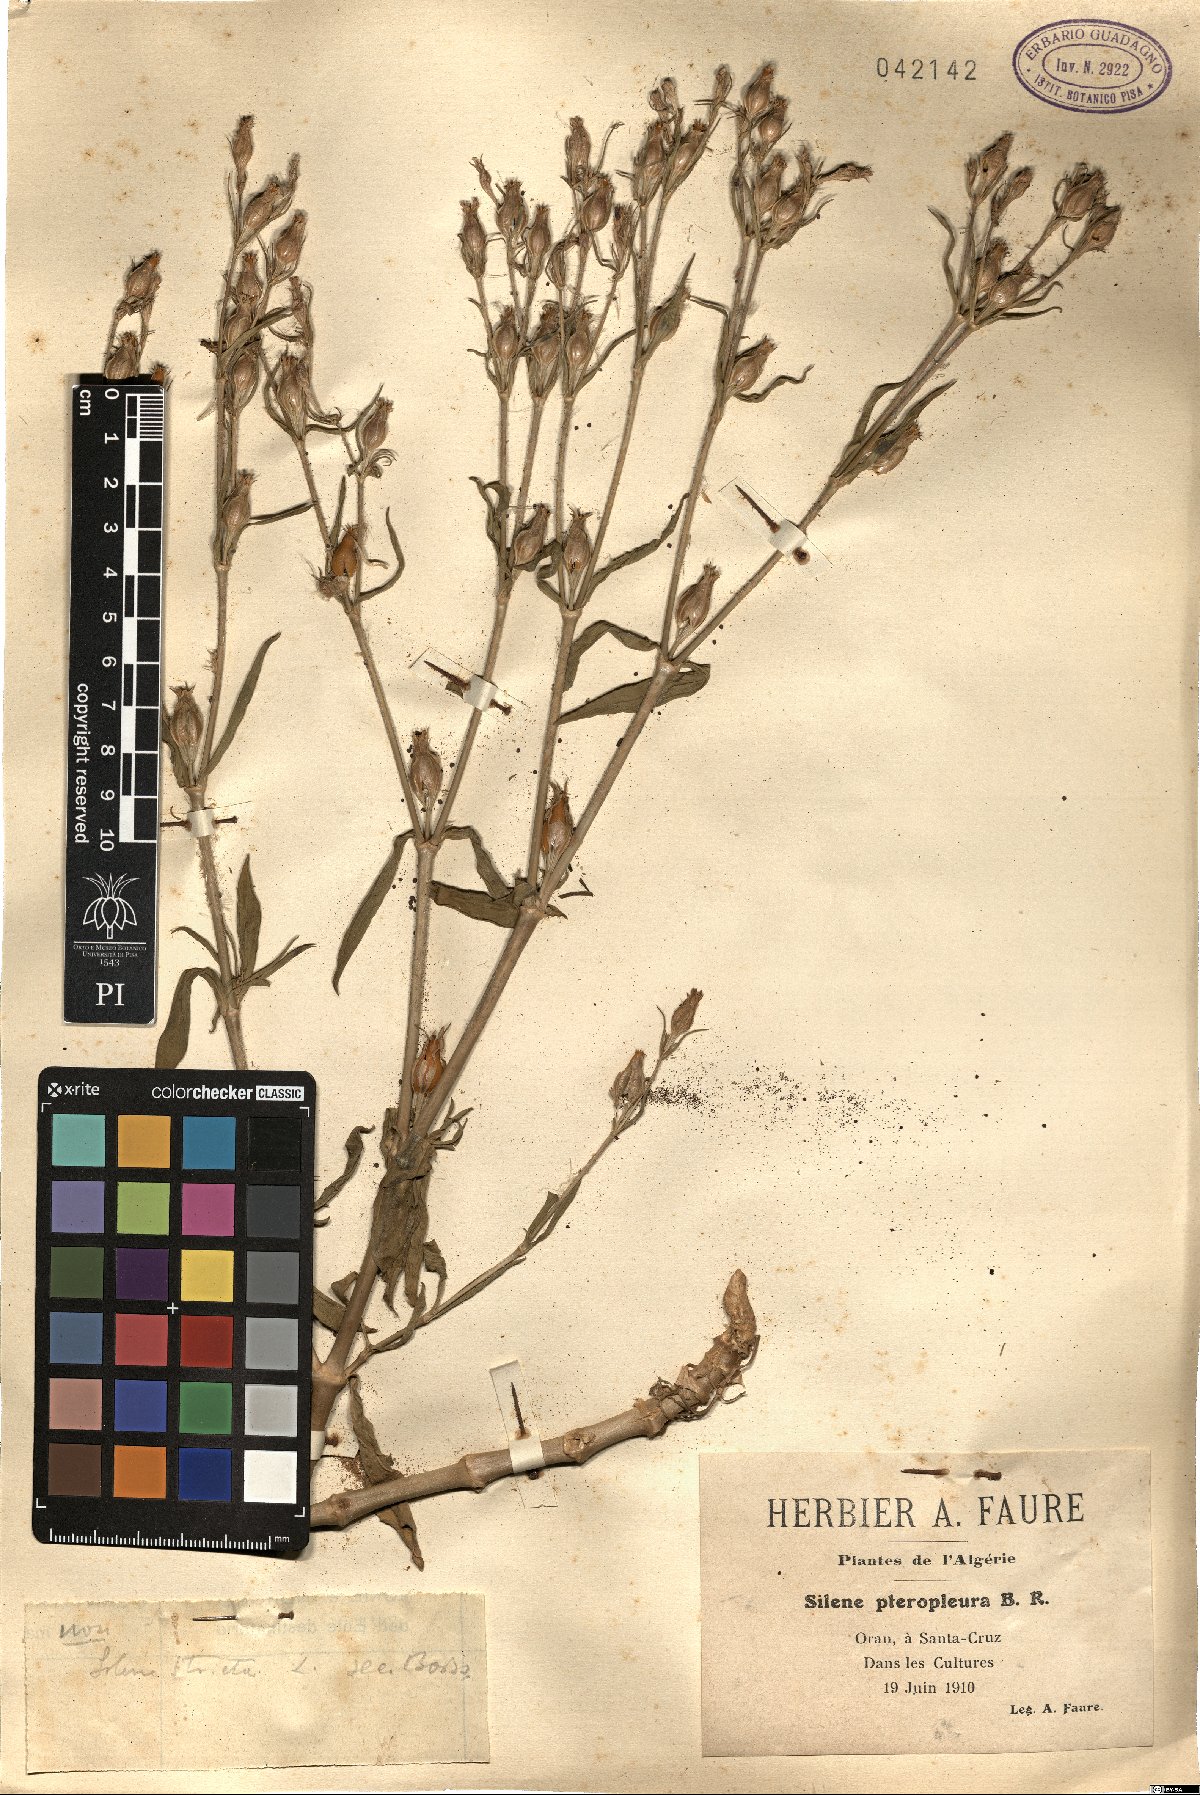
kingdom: Plantae
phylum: Tracheophyta
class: Magnoliopsida
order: Caryophyllales
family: Caryophyllaceae
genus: Silene
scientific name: Silene stricta
